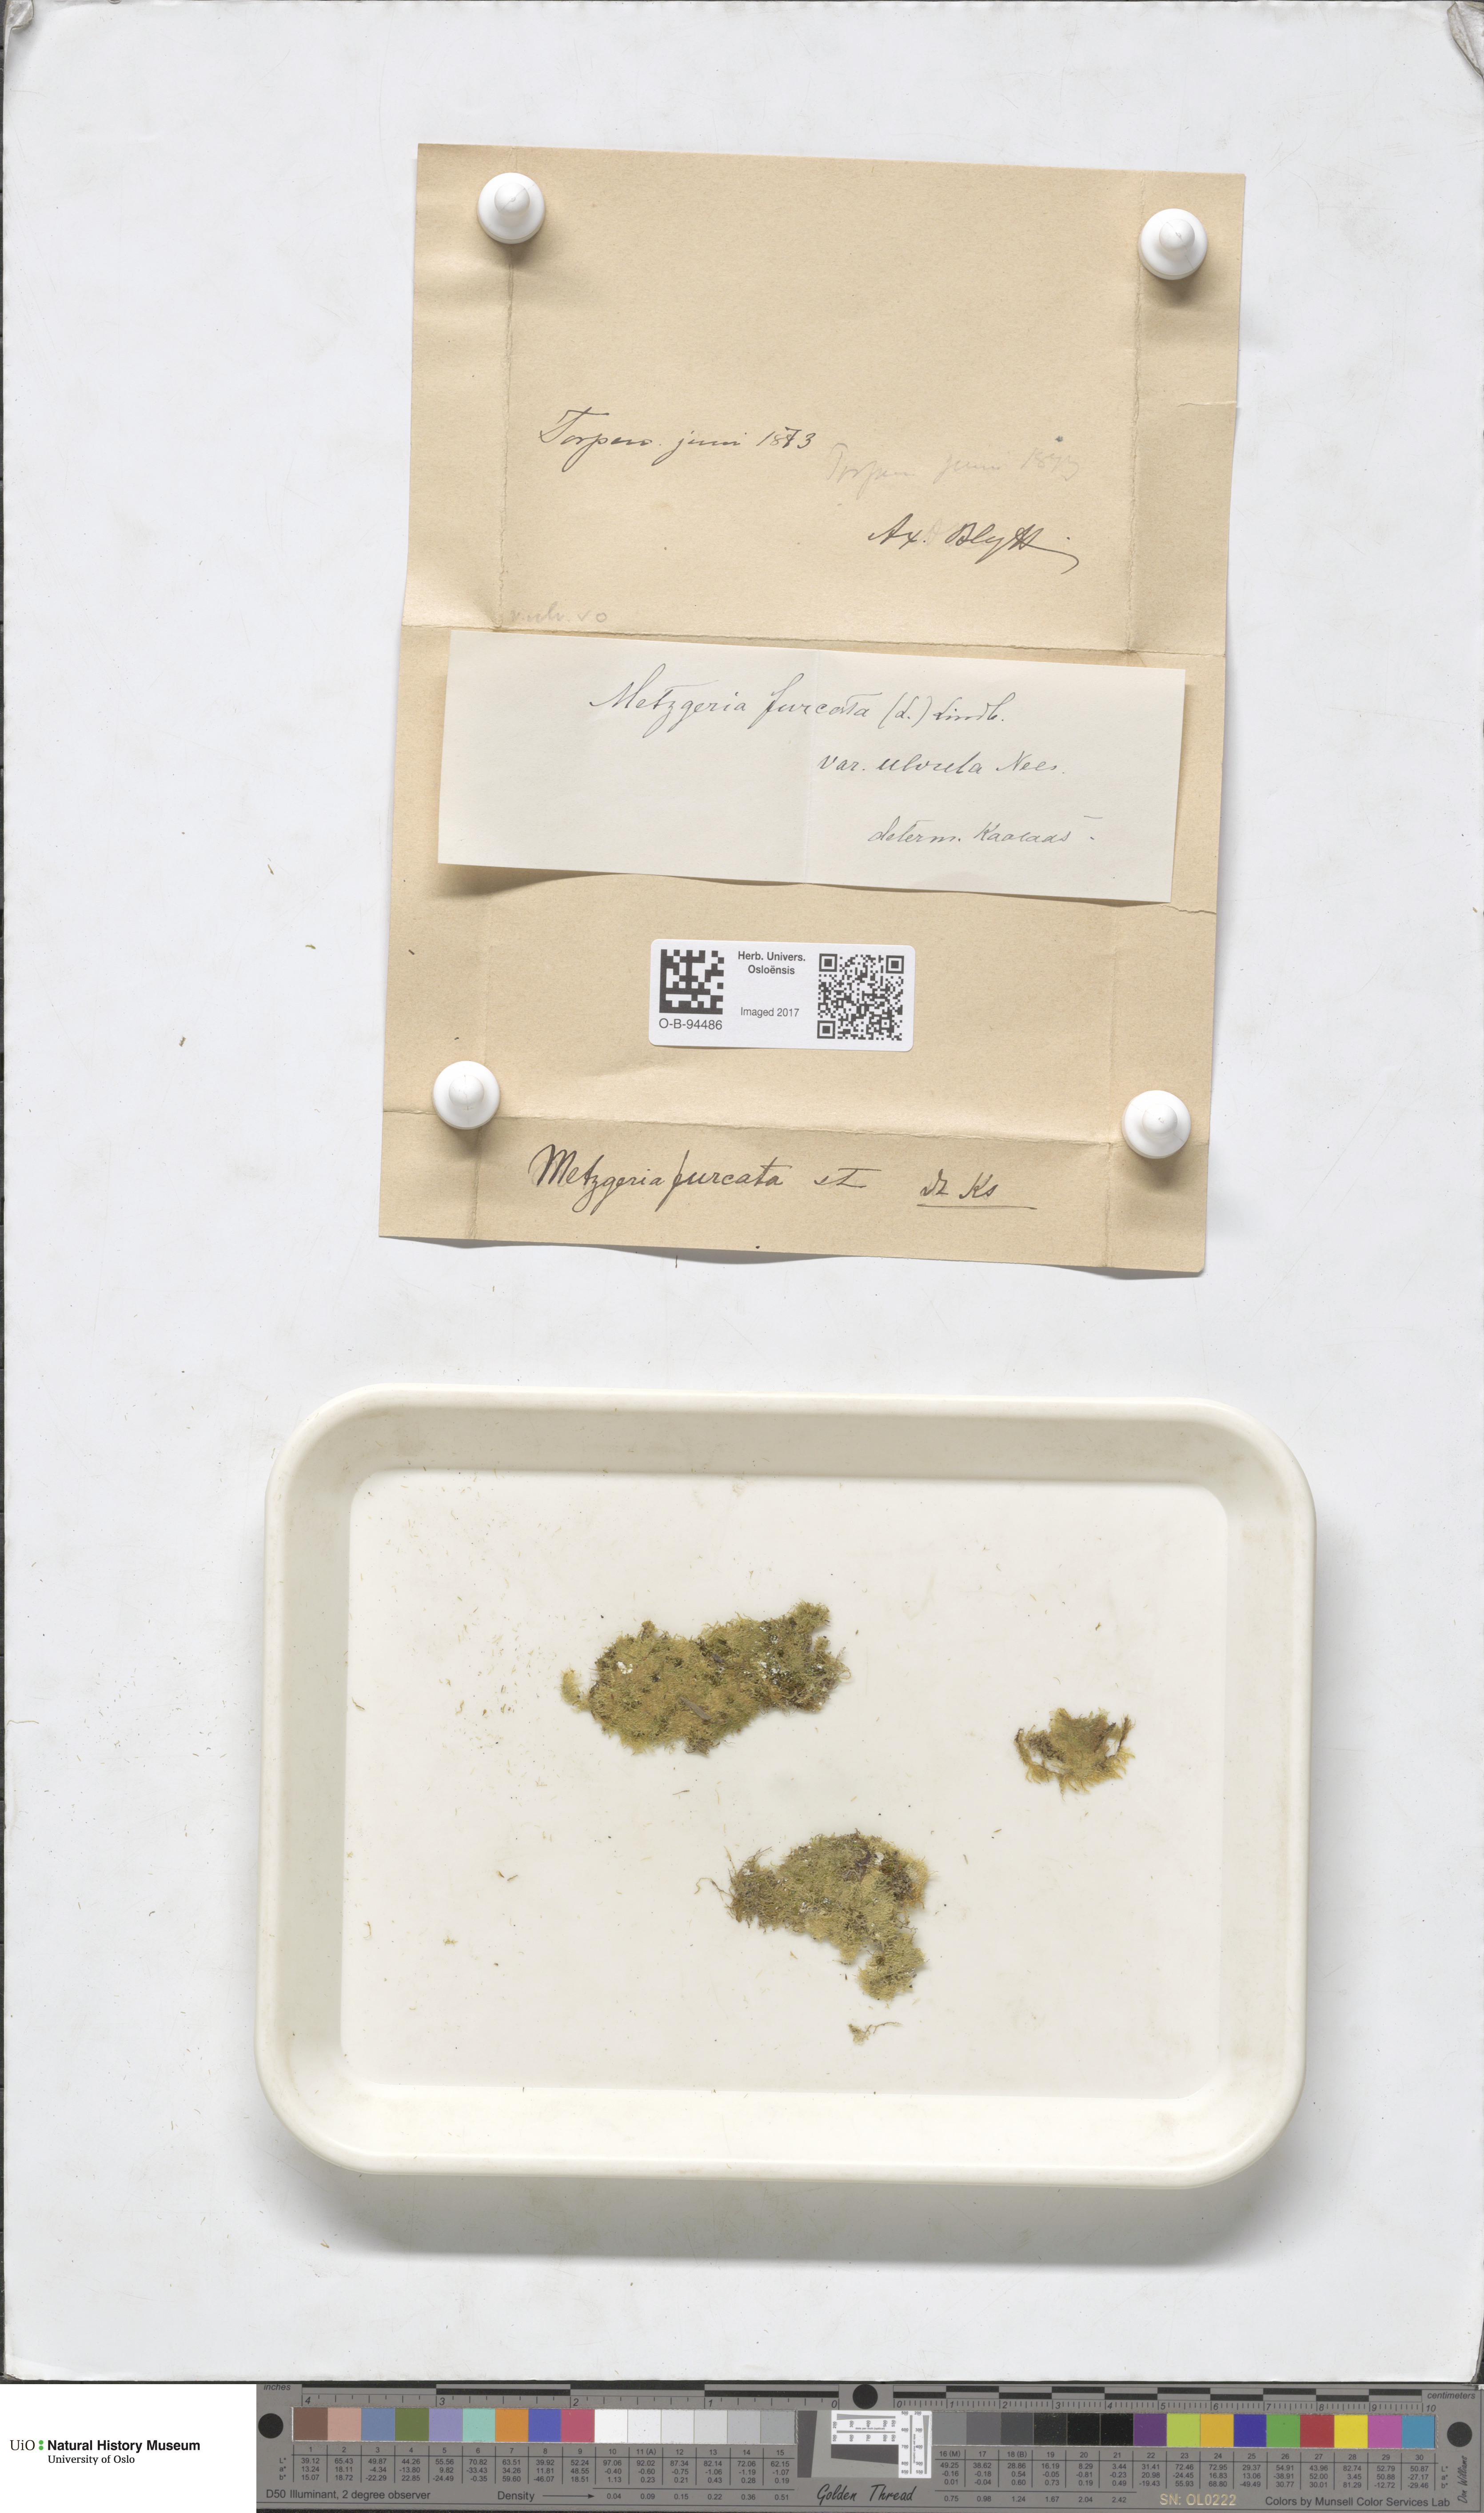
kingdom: Plantae
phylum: Marchantiophyta
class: Jungermanniopsida
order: Metzgeriales
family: Metzgeriaceae
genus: Metzgeria
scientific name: Metzgeria furcata
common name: Forked veilwort
